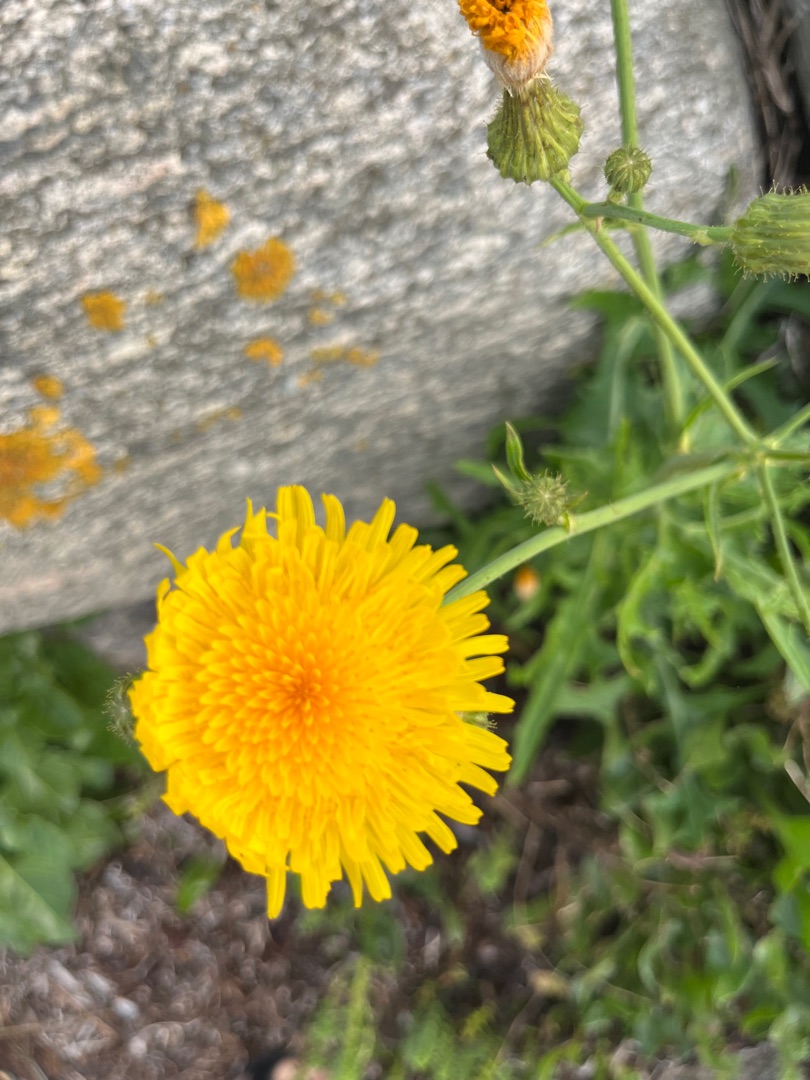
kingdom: Plantae
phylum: Tracheophyta
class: Magnoliopsida
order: Asterales
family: Asteraceae
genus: Sonchus
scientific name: Sonchus arvensis
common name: Ager-svinemælk
